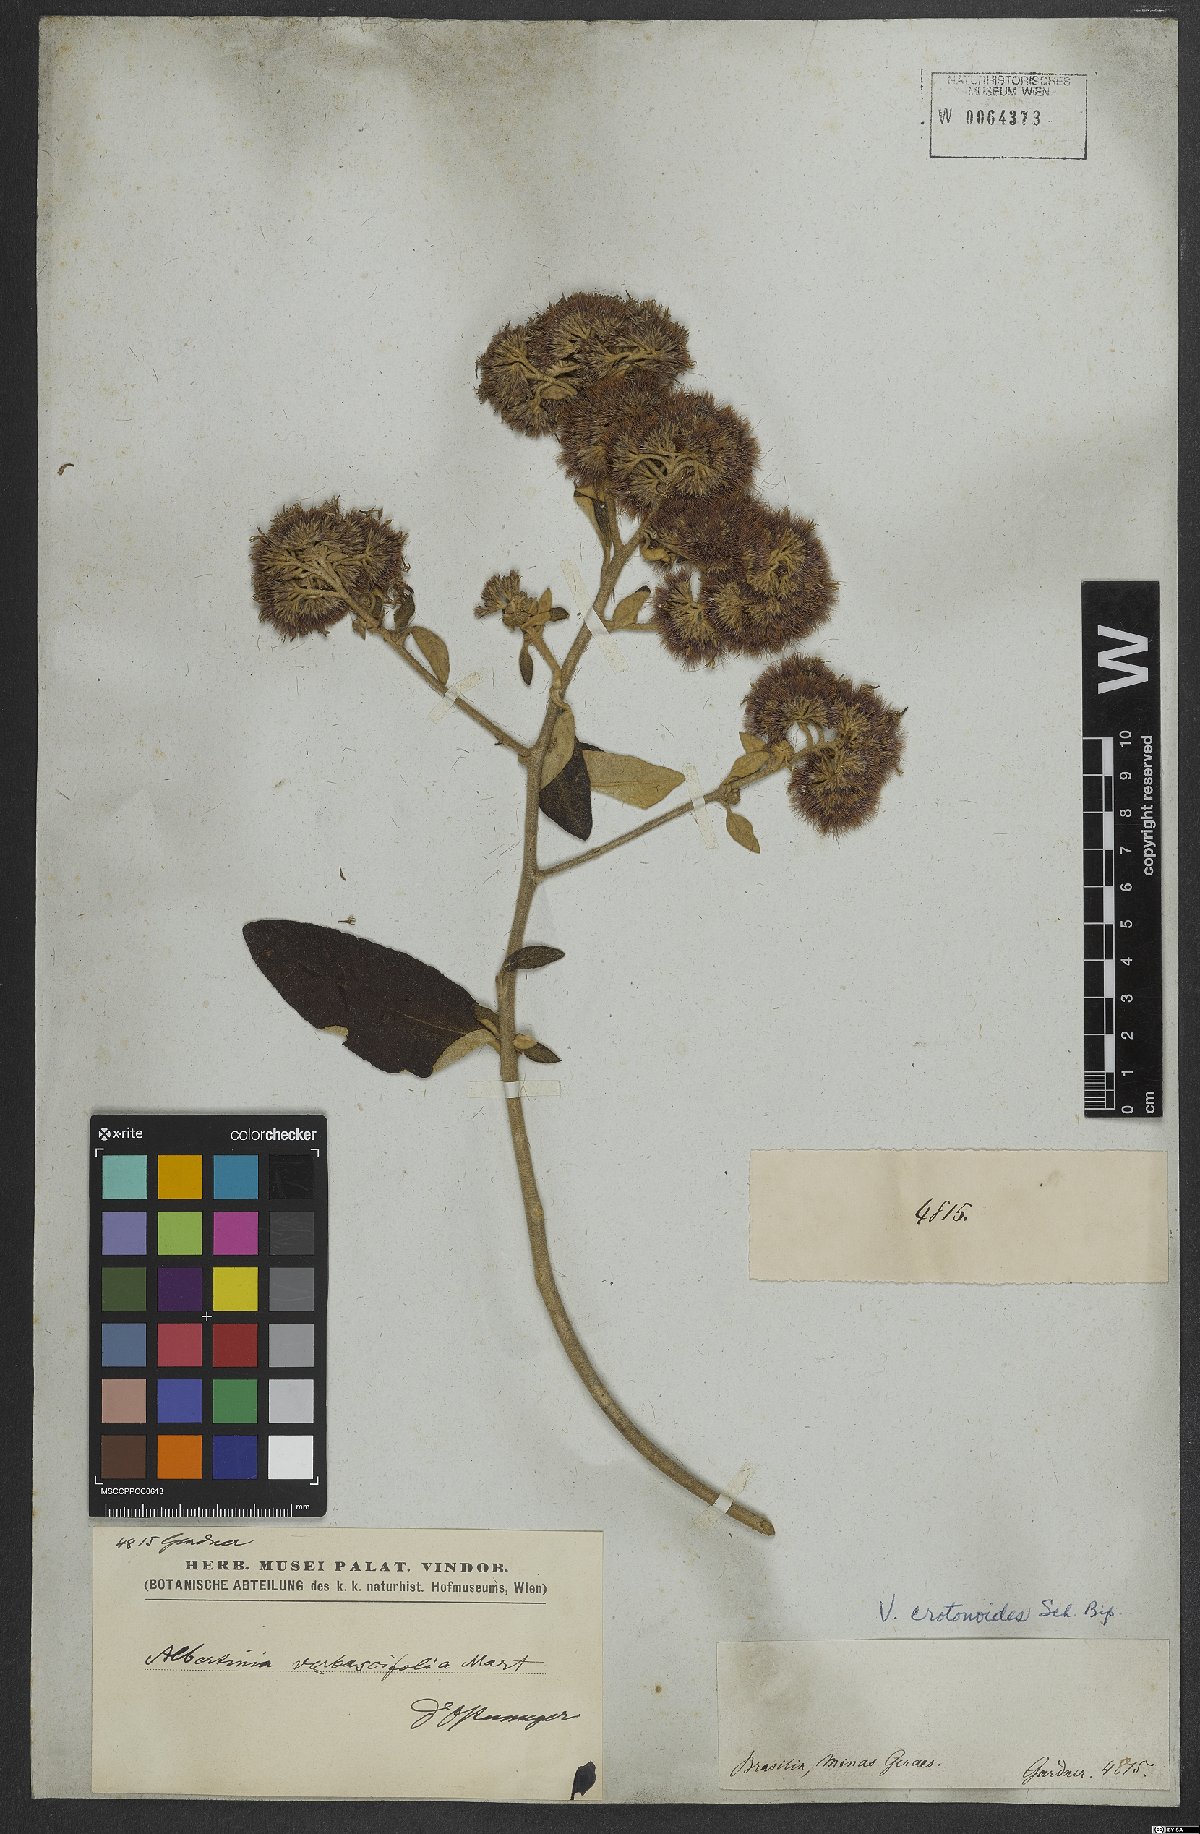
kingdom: Plantae
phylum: Tracheophyta
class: Magnoliopsida
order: Asterales
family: Asteraceae
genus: Eremanthus
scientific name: Eremanthus crotonoides
